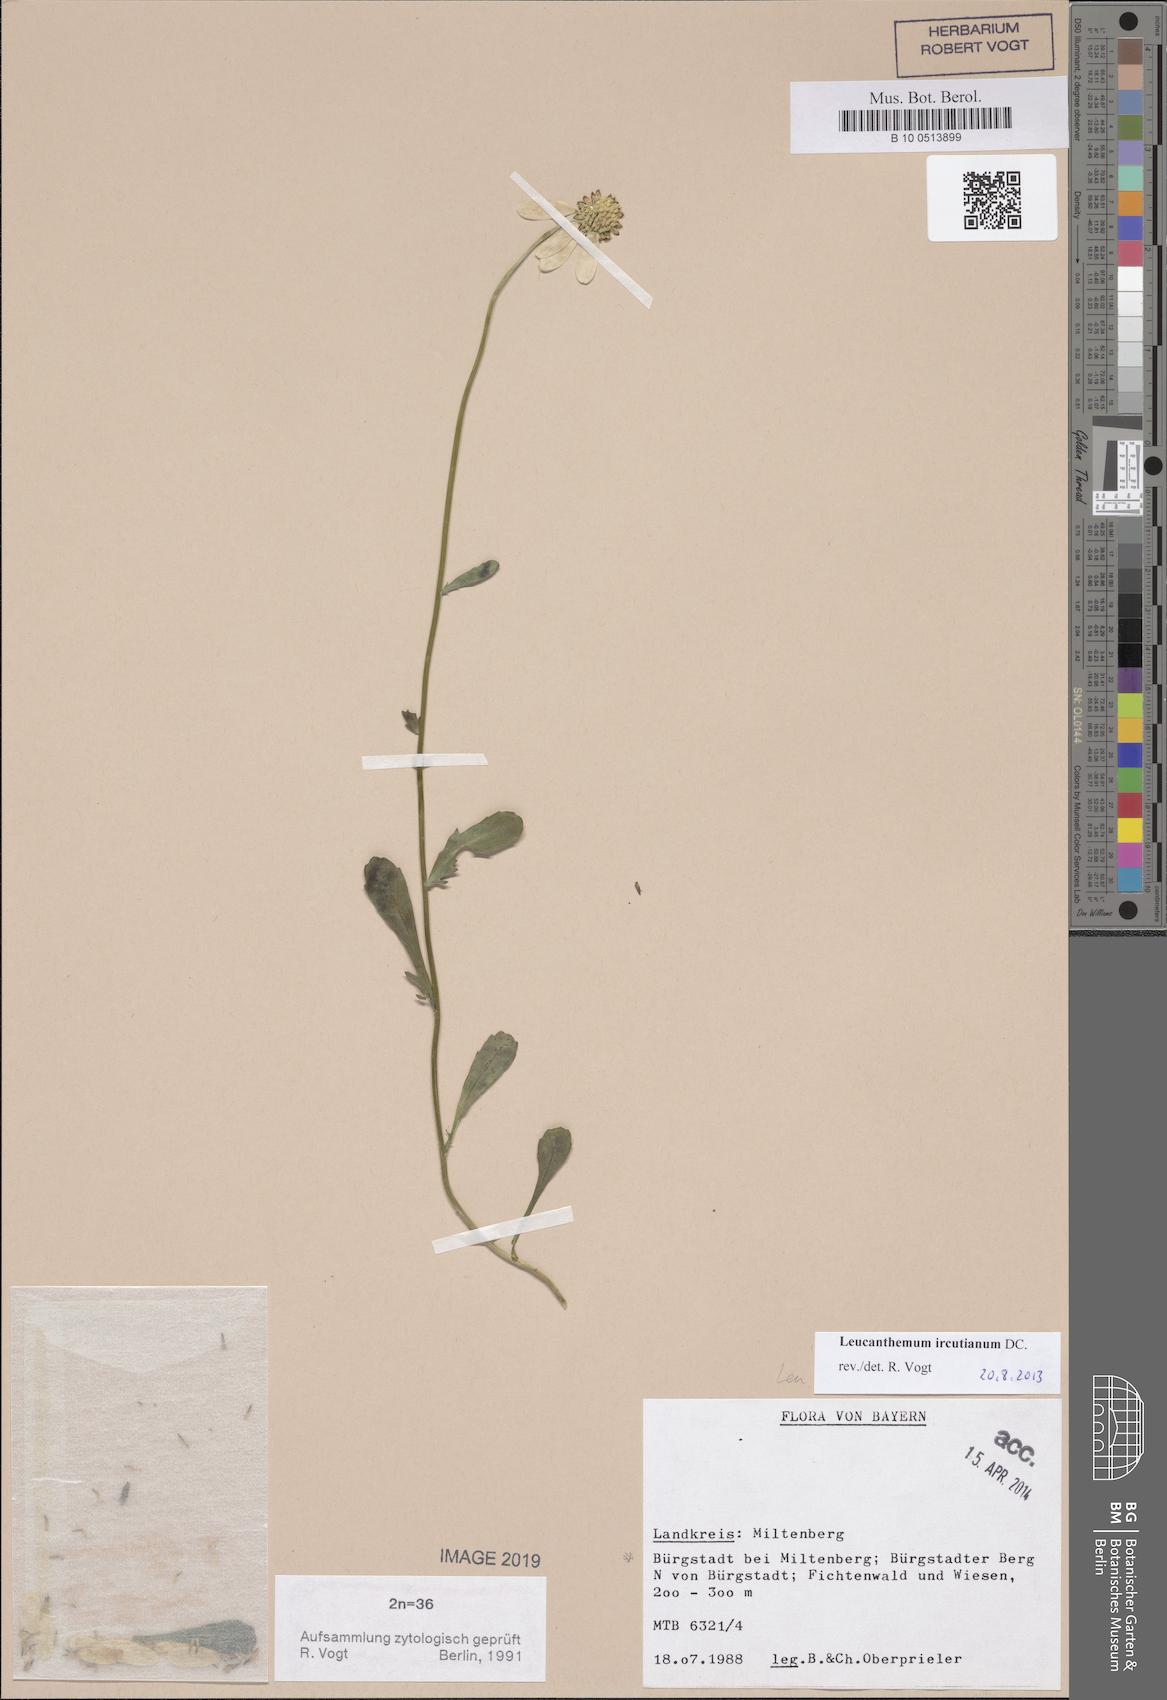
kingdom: Plantae
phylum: Tracheophyta
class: Magnoliopsida
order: Asterales
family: Asteraceae
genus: Leucanthemum
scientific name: Leucanthemum ircutianum
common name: Daisy
